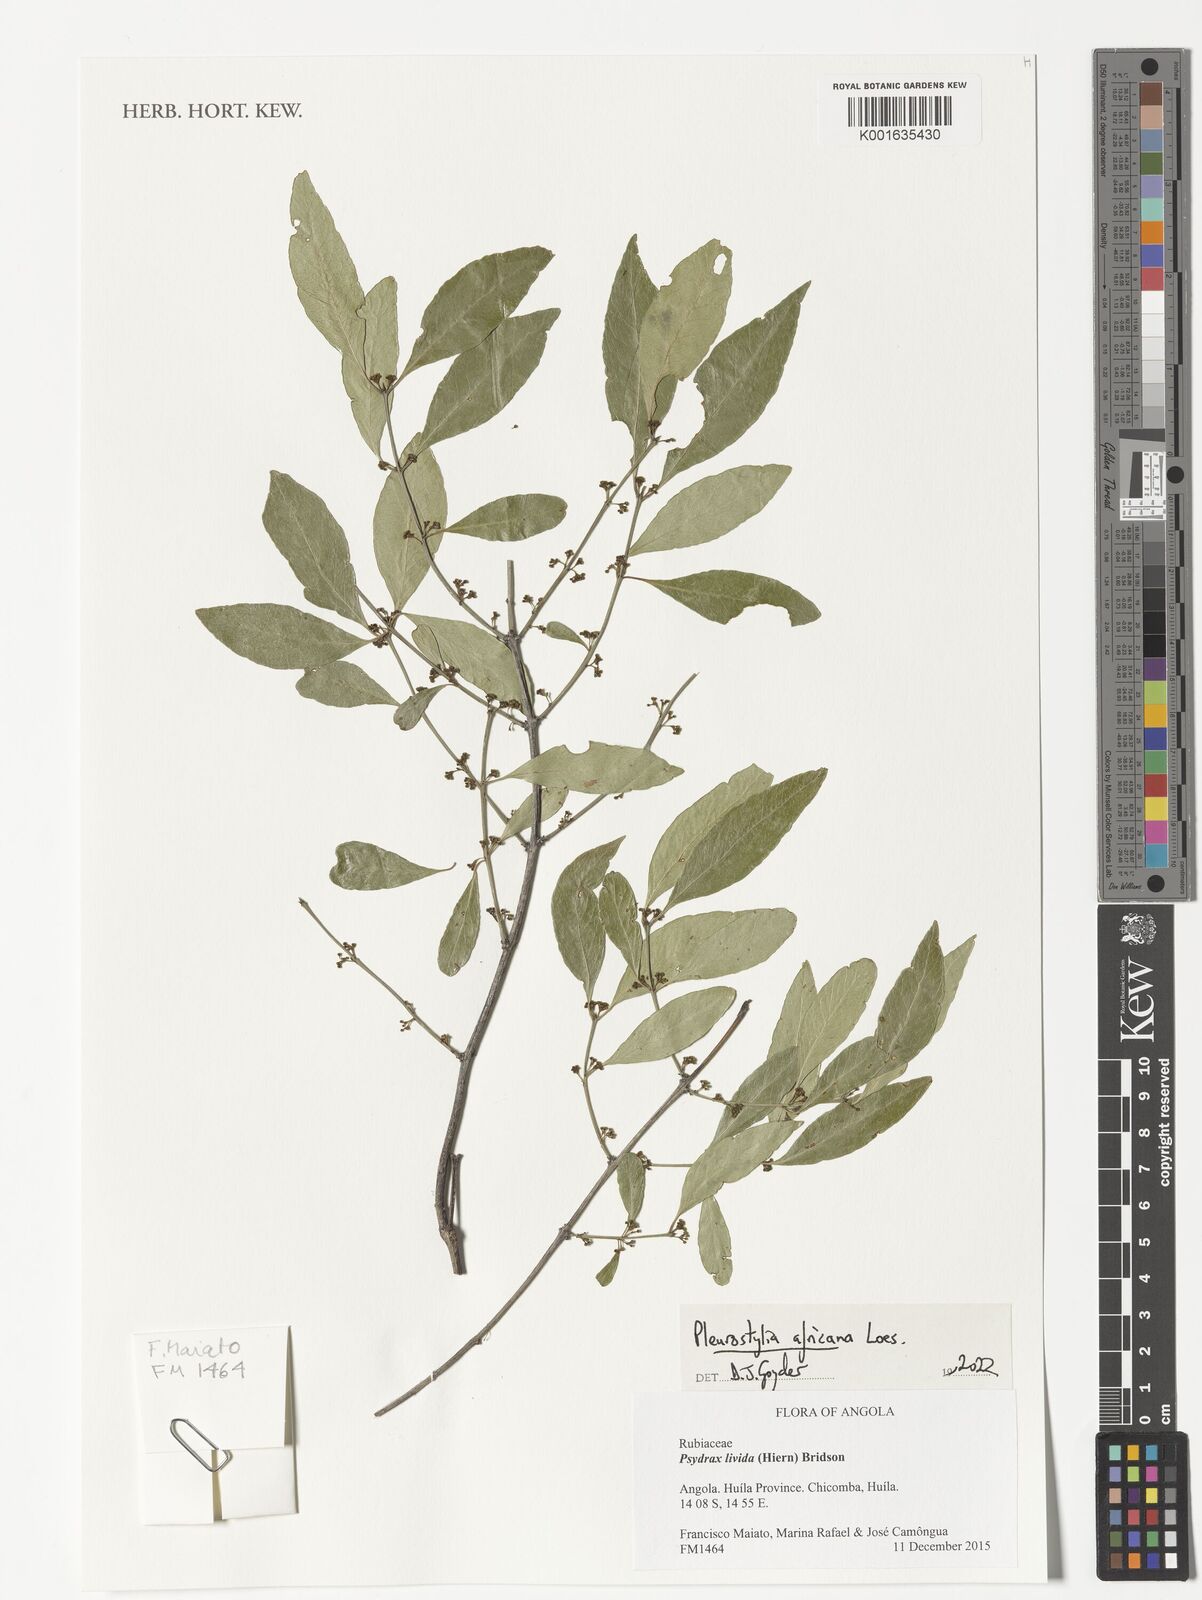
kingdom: Plantae
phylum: Tracheophyta
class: Magnoliopsida
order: Celastrales
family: Celastraceae
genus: Pleurostylia
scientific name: Pleurostylia africana
